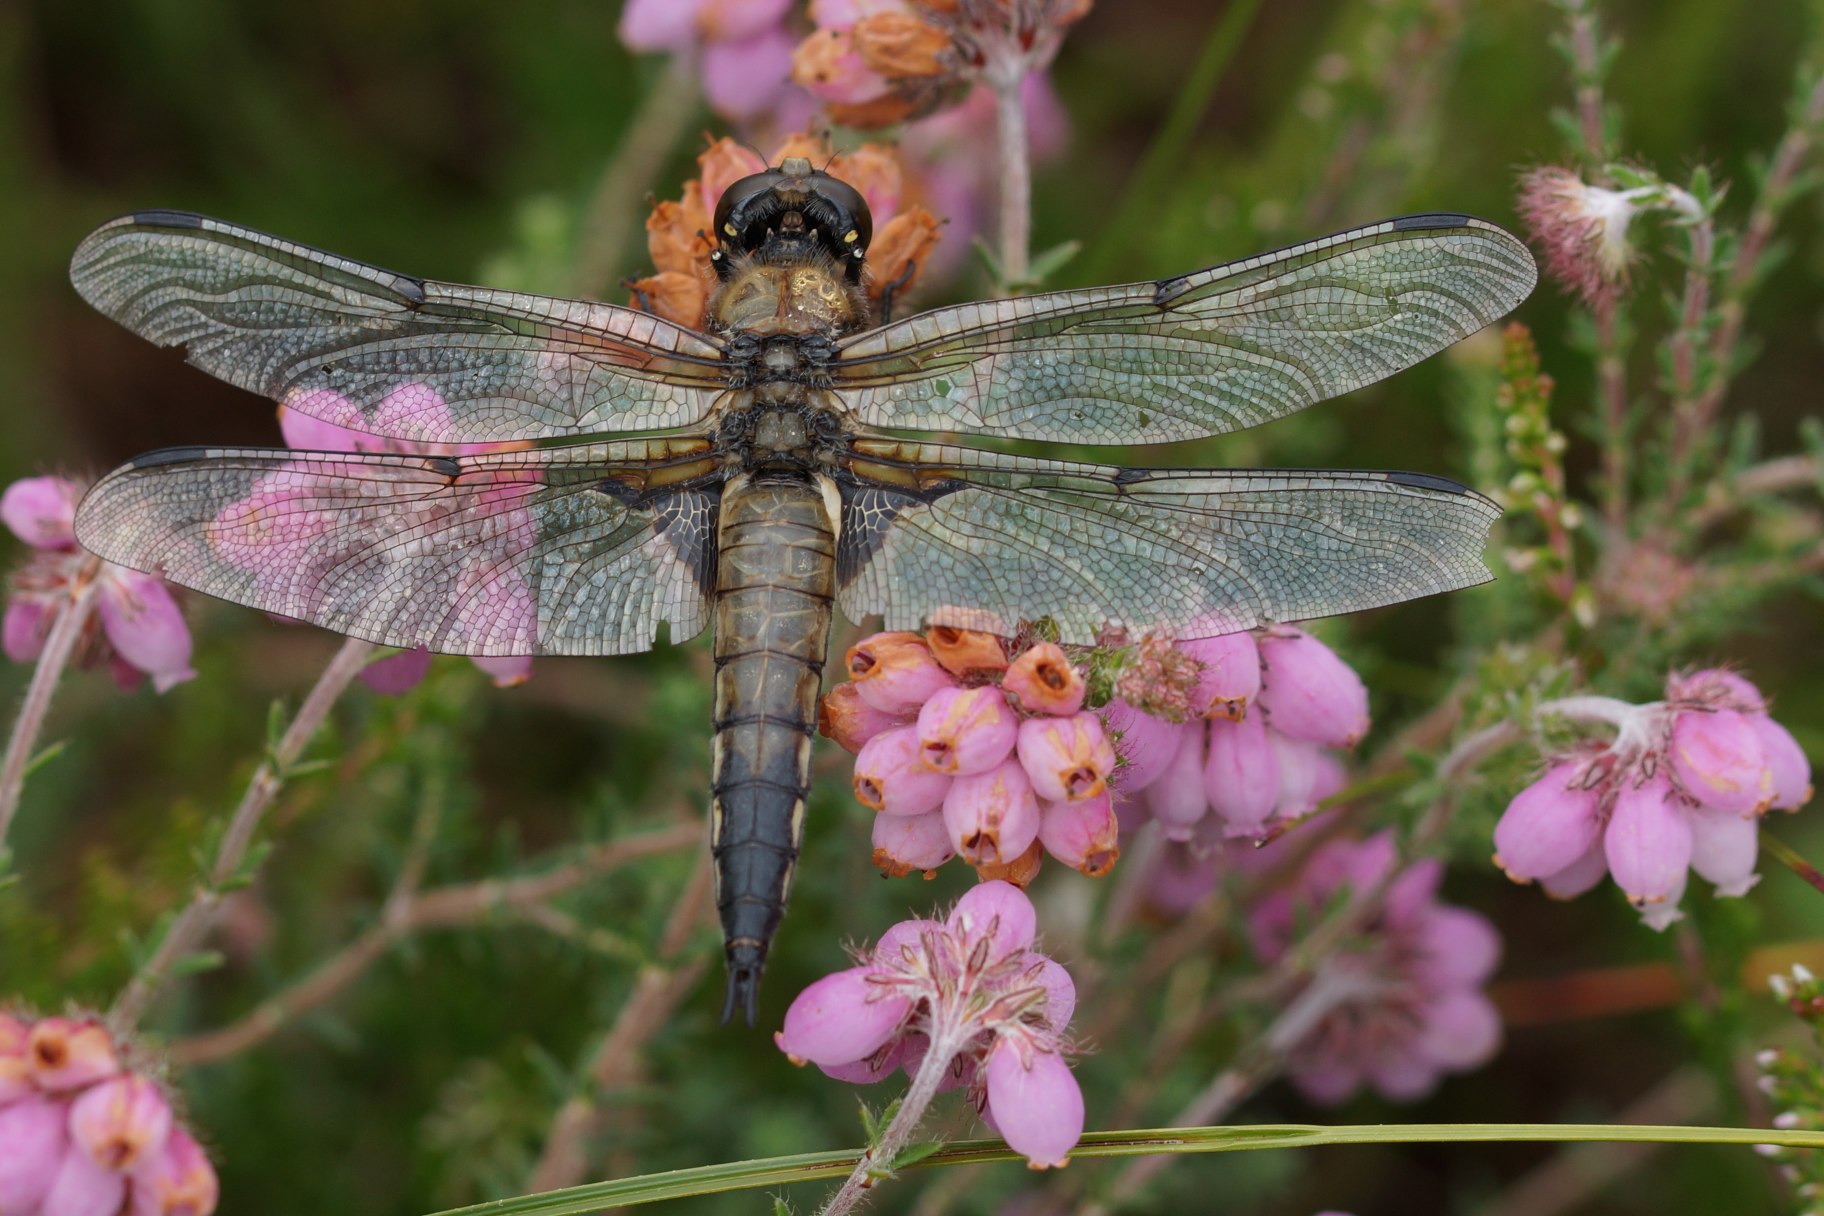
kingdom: Animalia
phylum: Arthropoda
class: Insecta
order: Odonata
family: Libellulidae
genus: Libellula
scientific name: Libellula quadrimaculata
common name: Fireplettet libel
